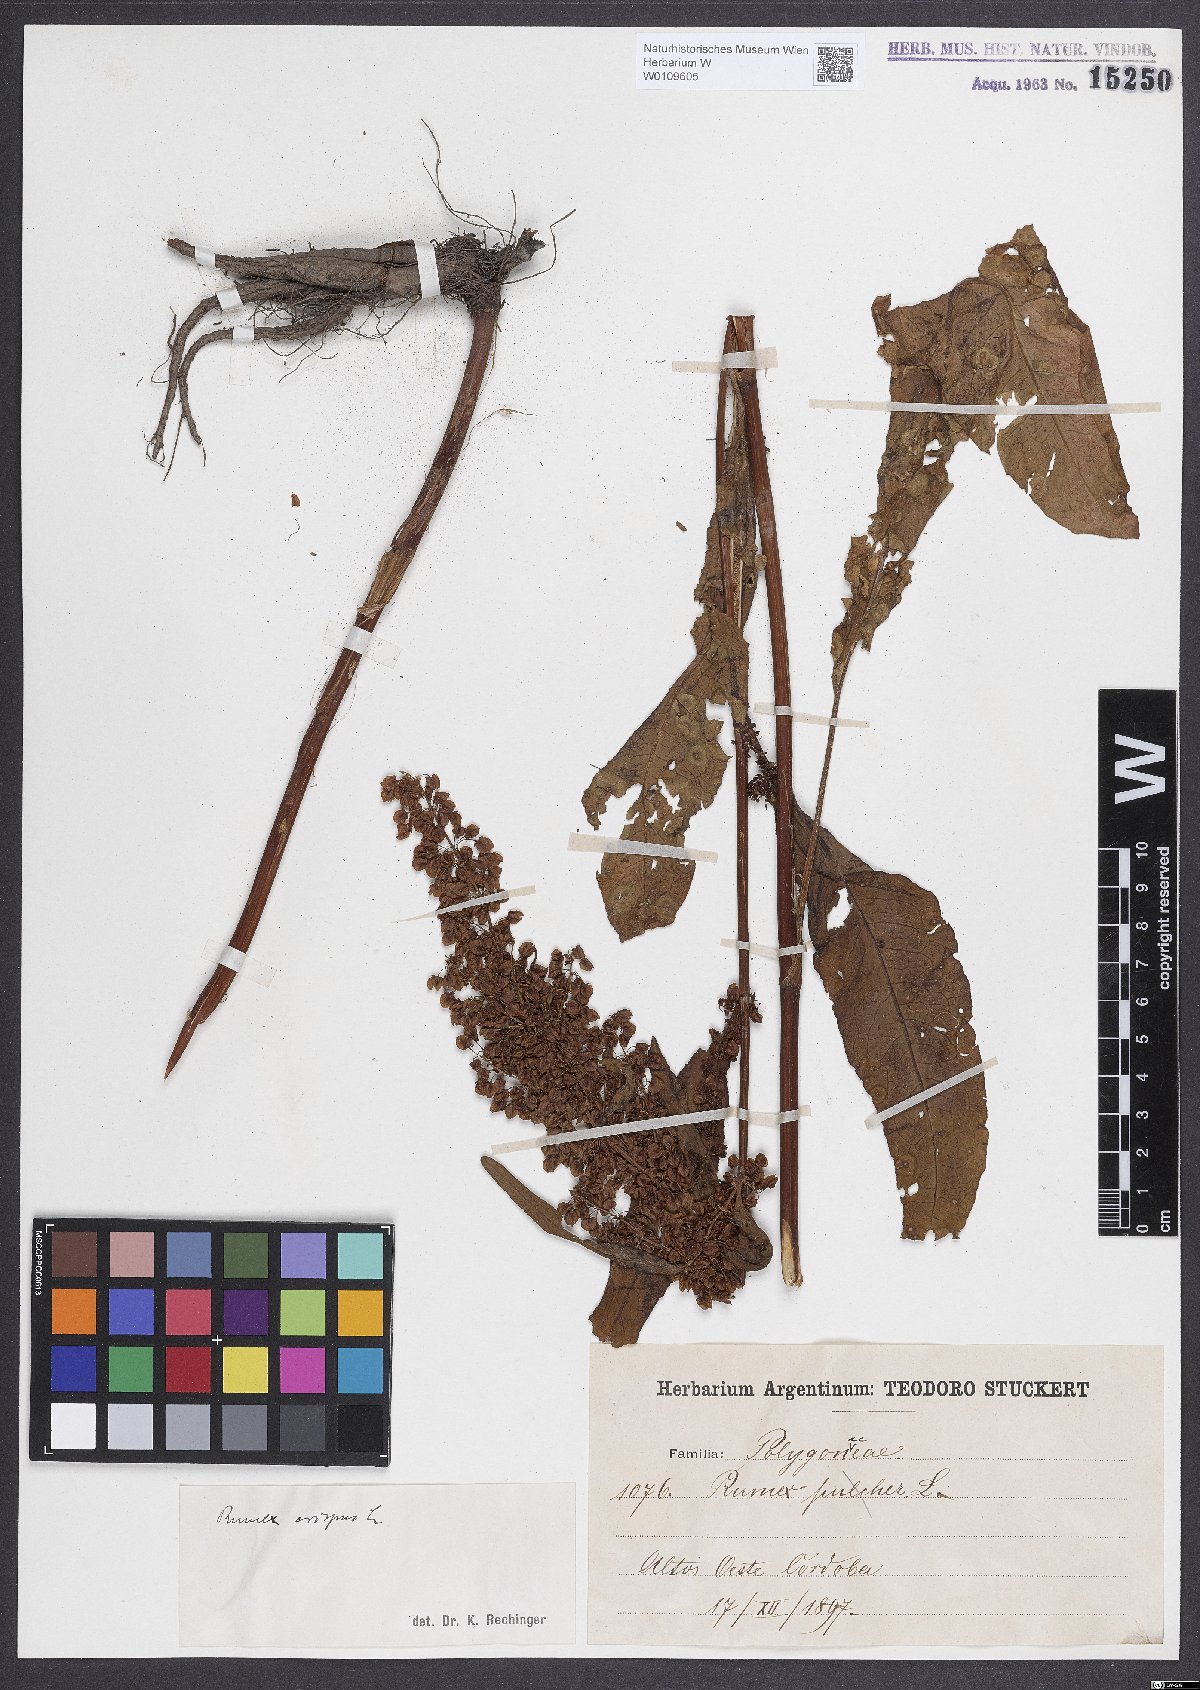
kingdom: Plantae
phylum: Tracheophyta
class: Magnoliopsida
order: Caryophyllales
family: Polygonaceae
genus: Rumex
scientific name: Rumex crispus
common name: Curled dock
